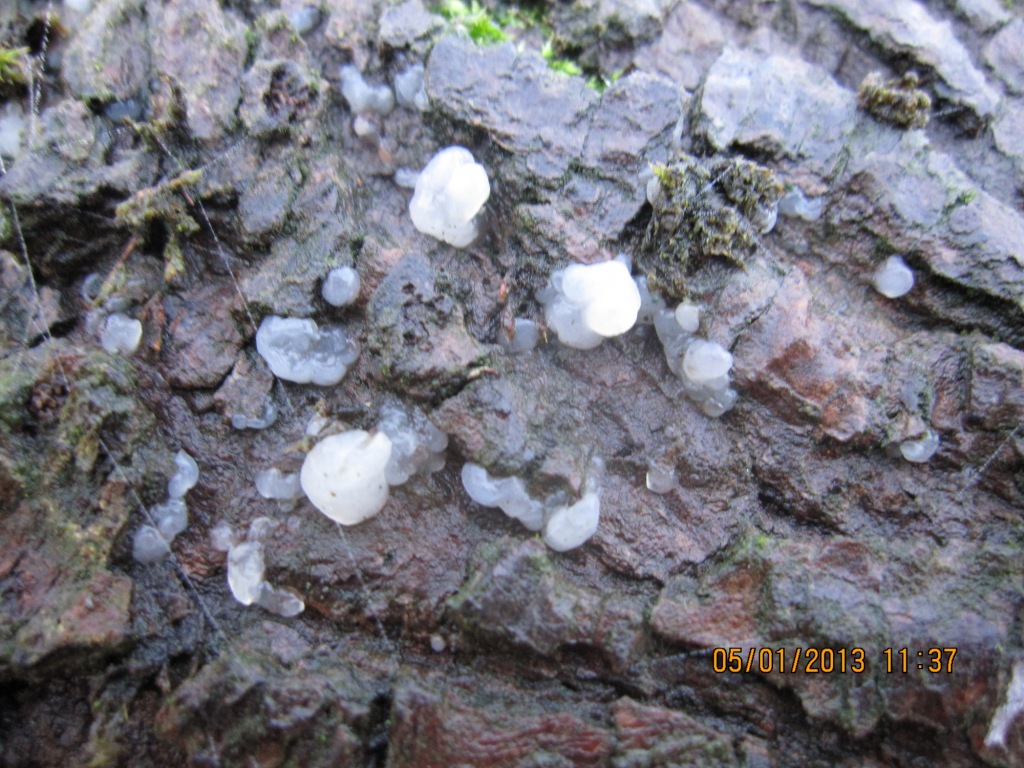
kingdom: Fungi
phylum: Basidiomycota
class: Agaricomycetes
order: Auriculariales
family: Hyaloriaceae
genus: Myxarium
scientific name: Myxarium nucleatum
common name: klar bævretop
